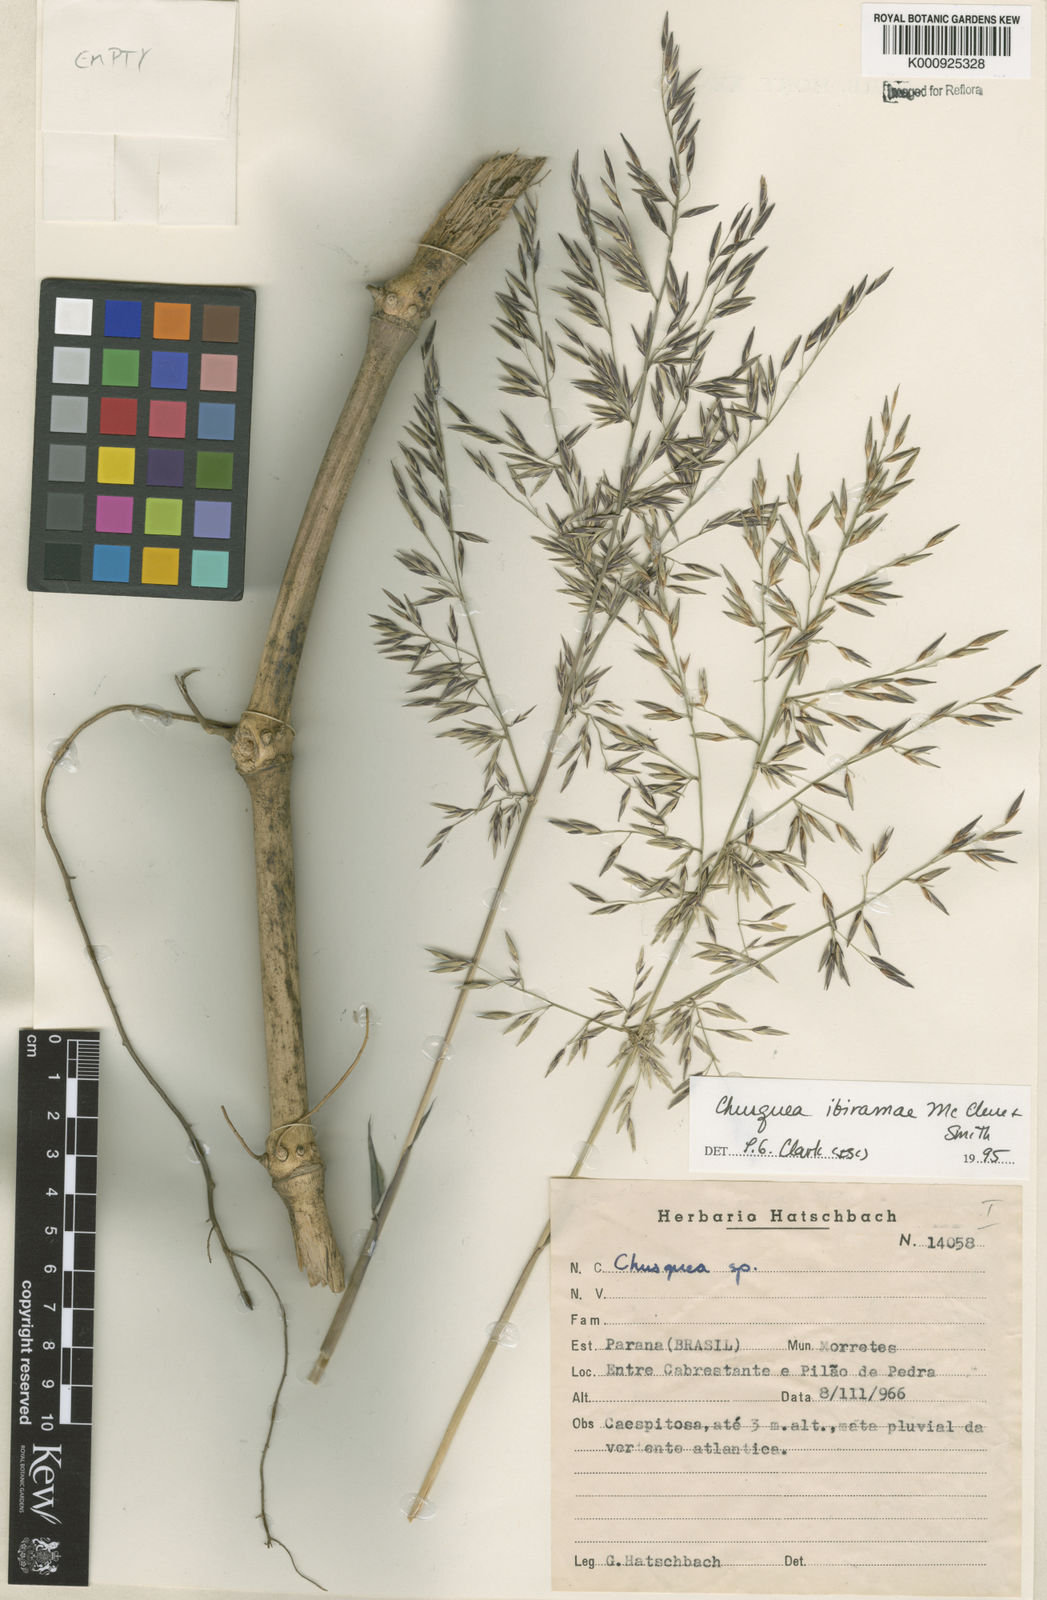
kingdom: Plantae
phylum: Tracheophyta
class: Liliopsida
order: Poales
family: Poaceae
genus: Chusquea
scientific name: Chusquea ibiramae
